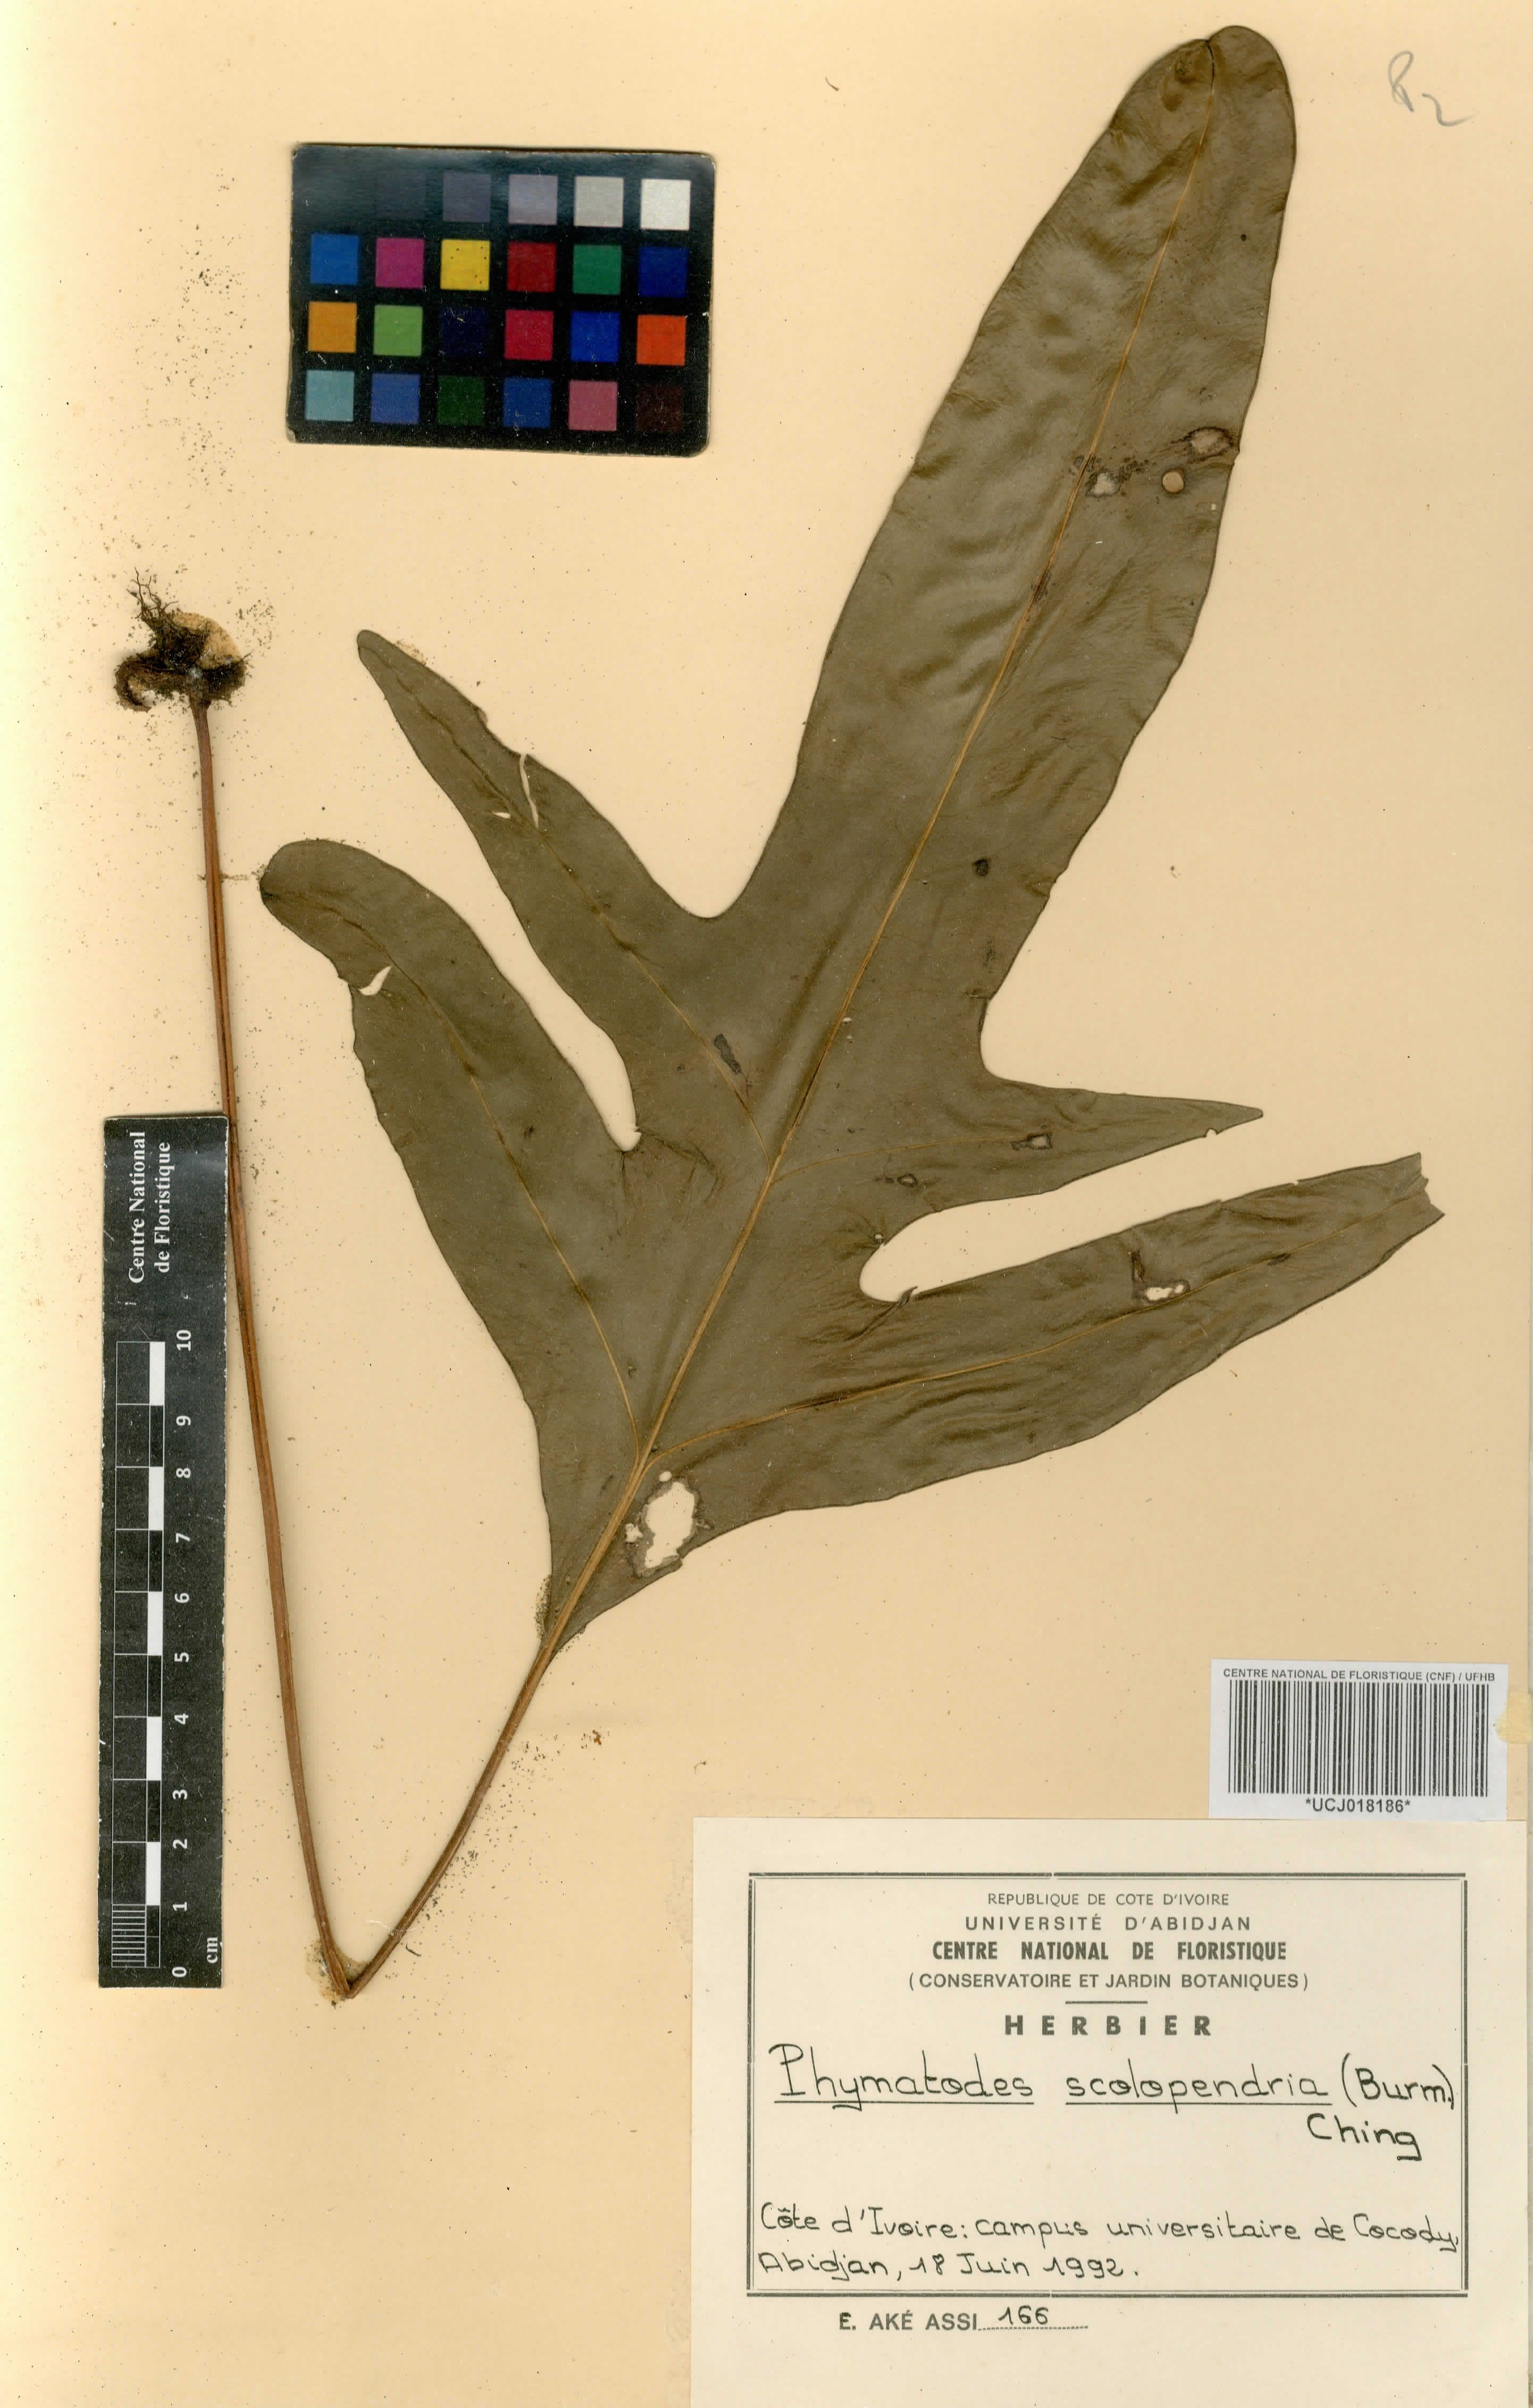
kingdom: Plantae
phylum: Tracheophyta
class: Polypodiopsida
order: Polypodiales
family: Polypodiaceae
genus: Microsorum
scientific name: Microsorum scolopendria
